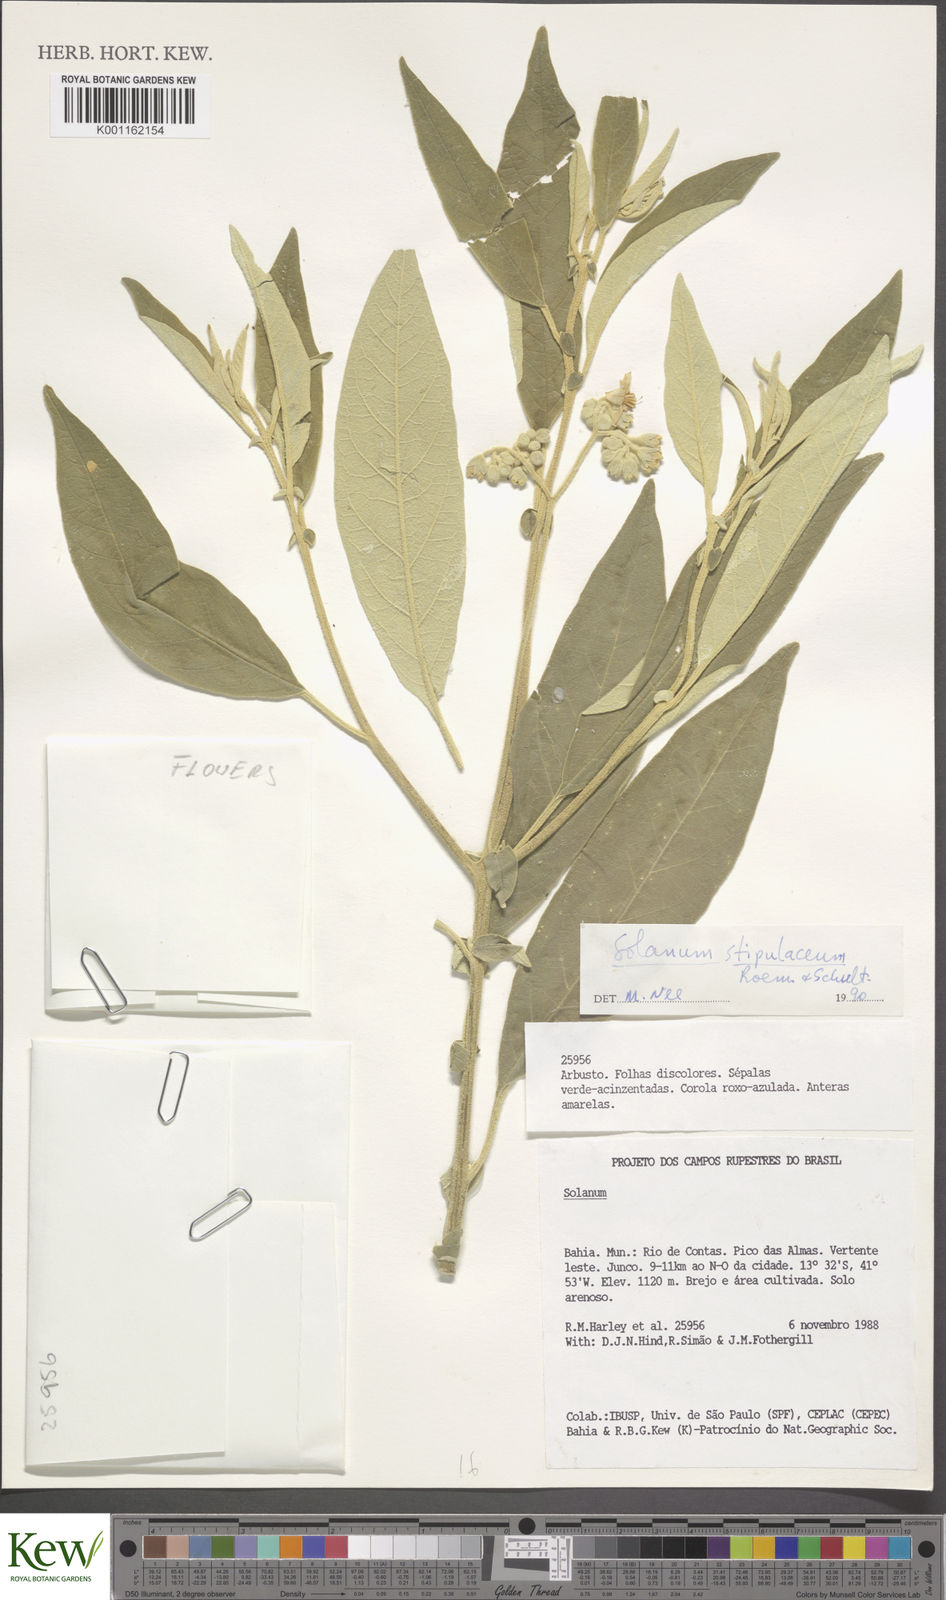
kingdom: Plantae
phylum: Tracheophyta
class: Magnoliopsida
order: Solanales
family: Solanaceae
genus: Solanum
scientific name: Solanum stipulaceum
